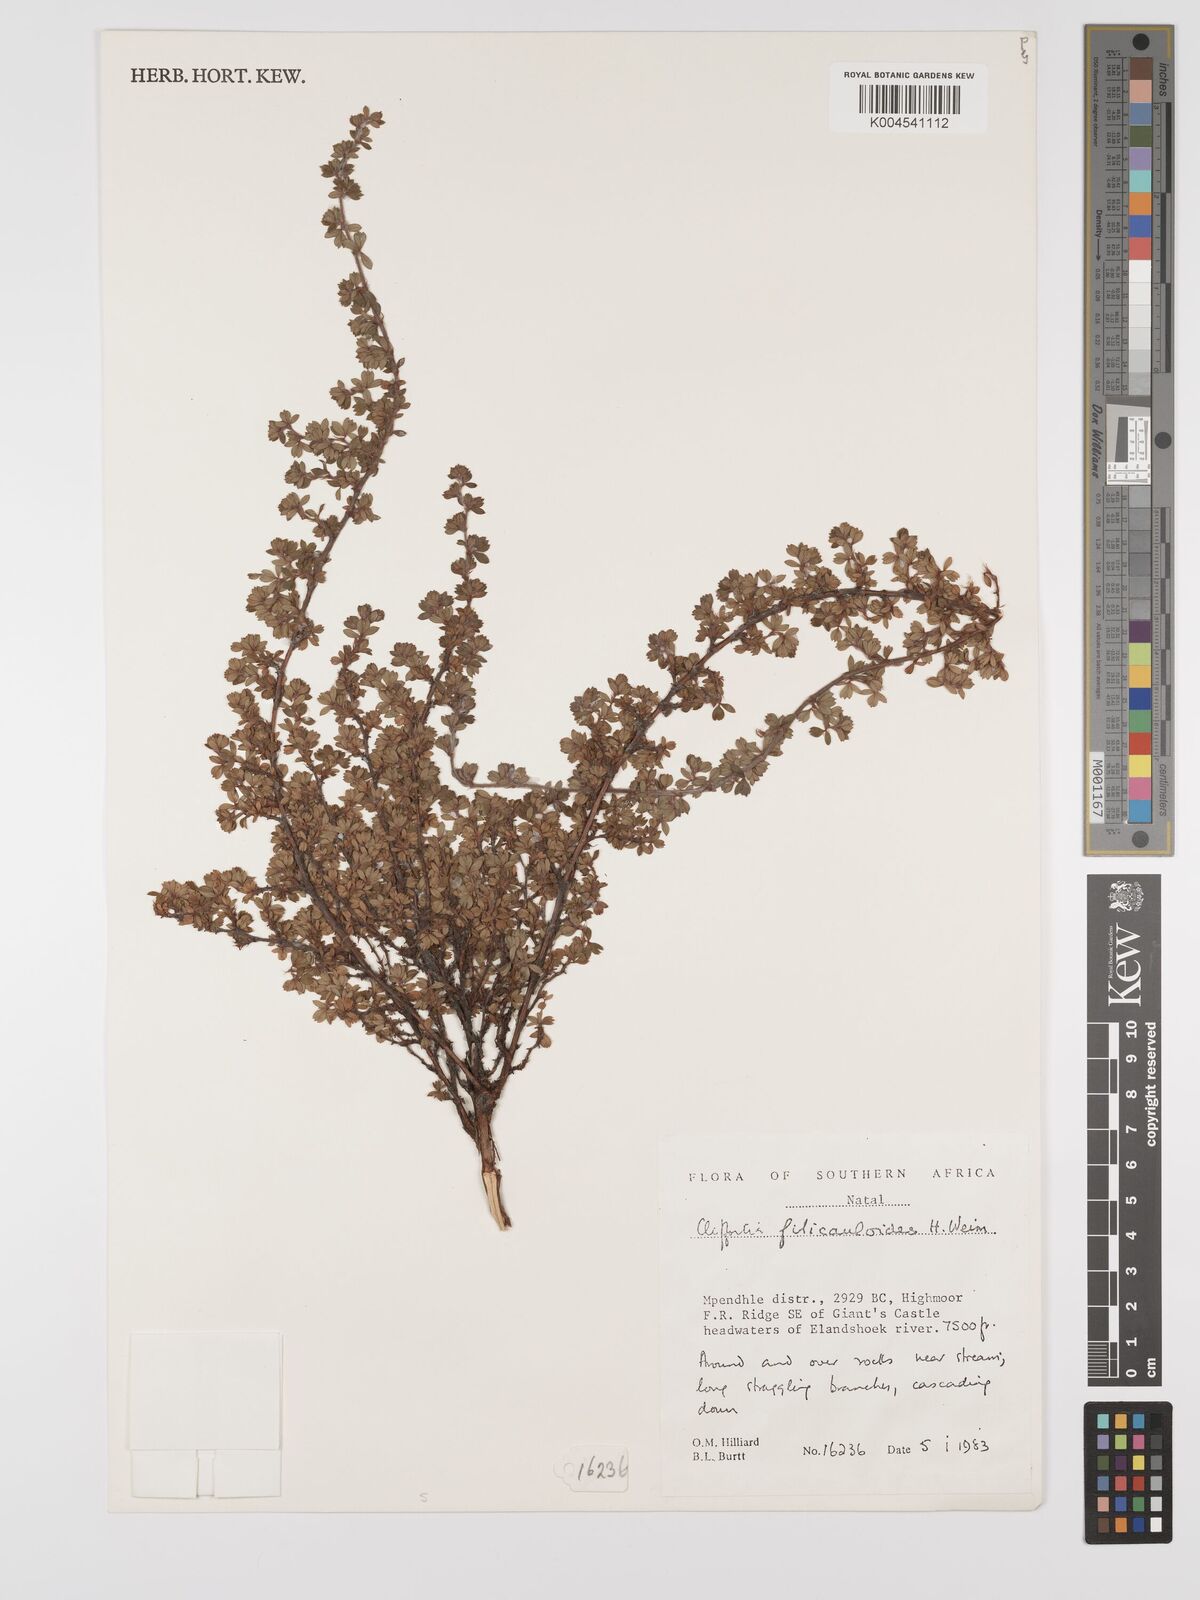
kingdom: Plantae
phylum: Tracheophyta
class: Magnoliopsida
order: Rosales
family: Rosaceae
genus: Cliffortia
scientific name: Cliffortia filicauloides
